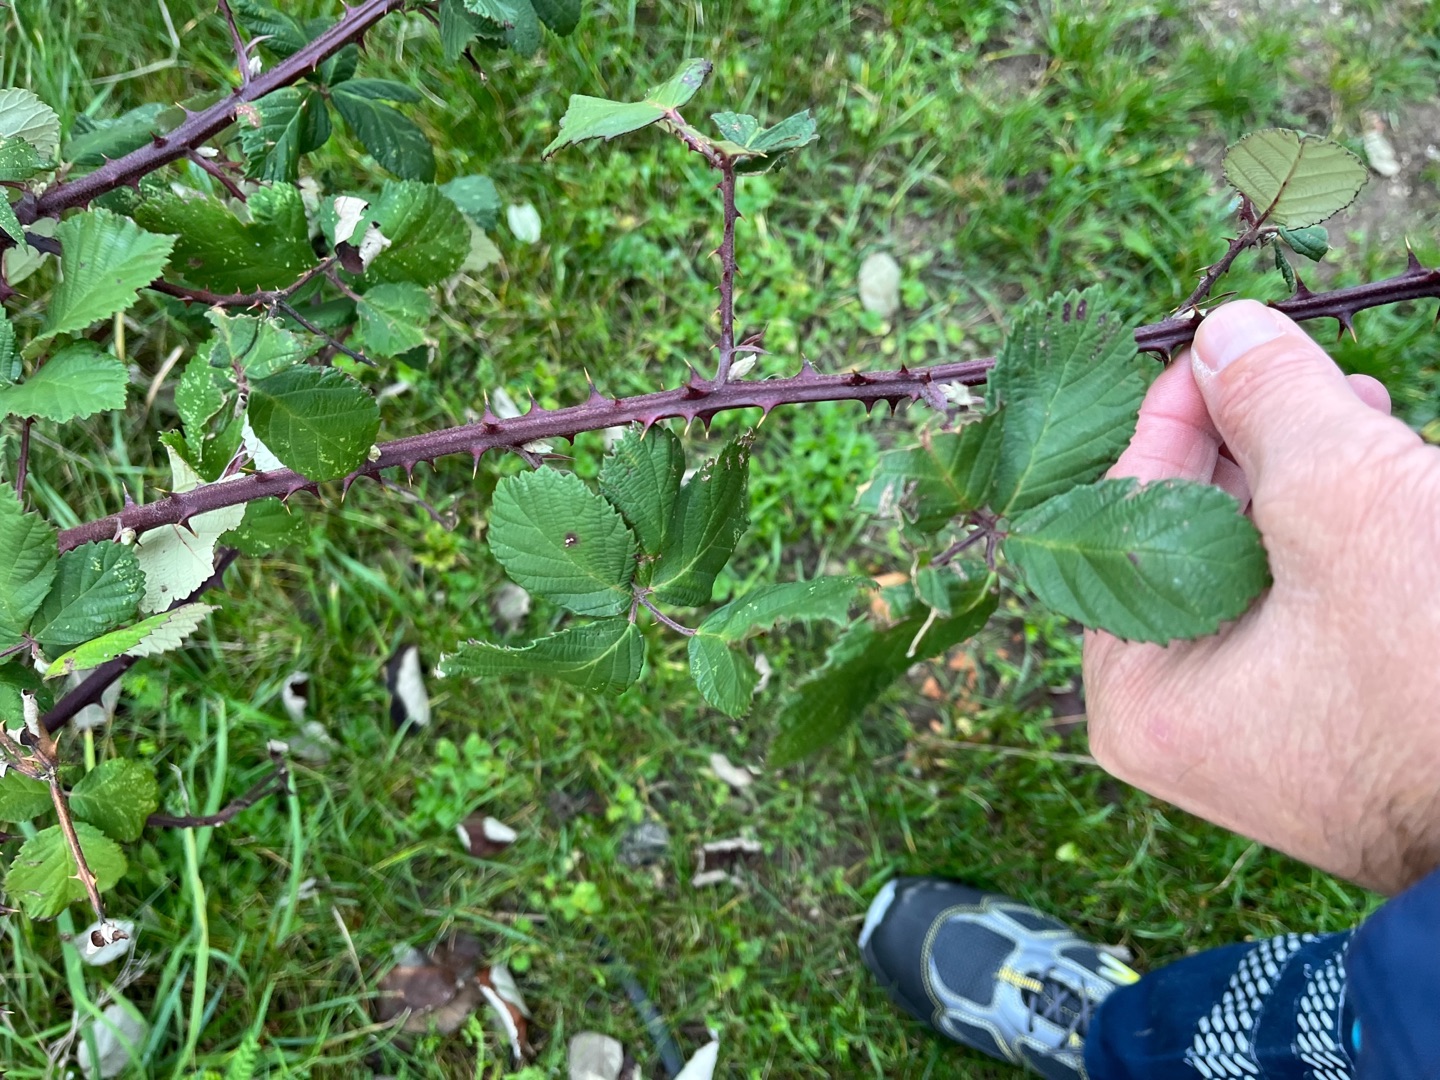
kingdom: Plantae
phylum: Tracheophyta
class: Magnoliopsida
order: Rosales
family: Rosaceae
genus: Rubus
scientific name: Rubus armeniacus
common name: Armensk brombær
